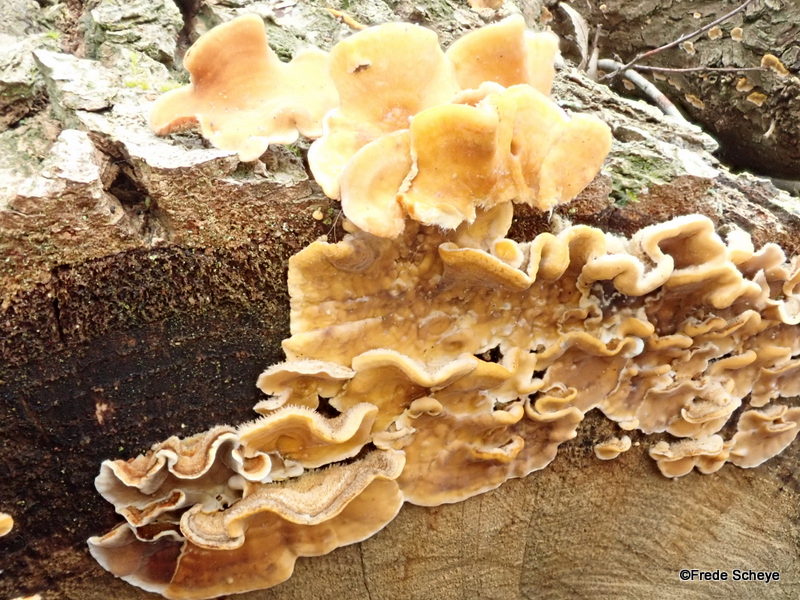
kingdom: Fungi
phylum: Basidiomycota
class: Agaricomycetes
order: Russulales
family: Stereaceae
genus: Stereum
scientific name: Stereum hirsutum
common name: håret lædersvamp
